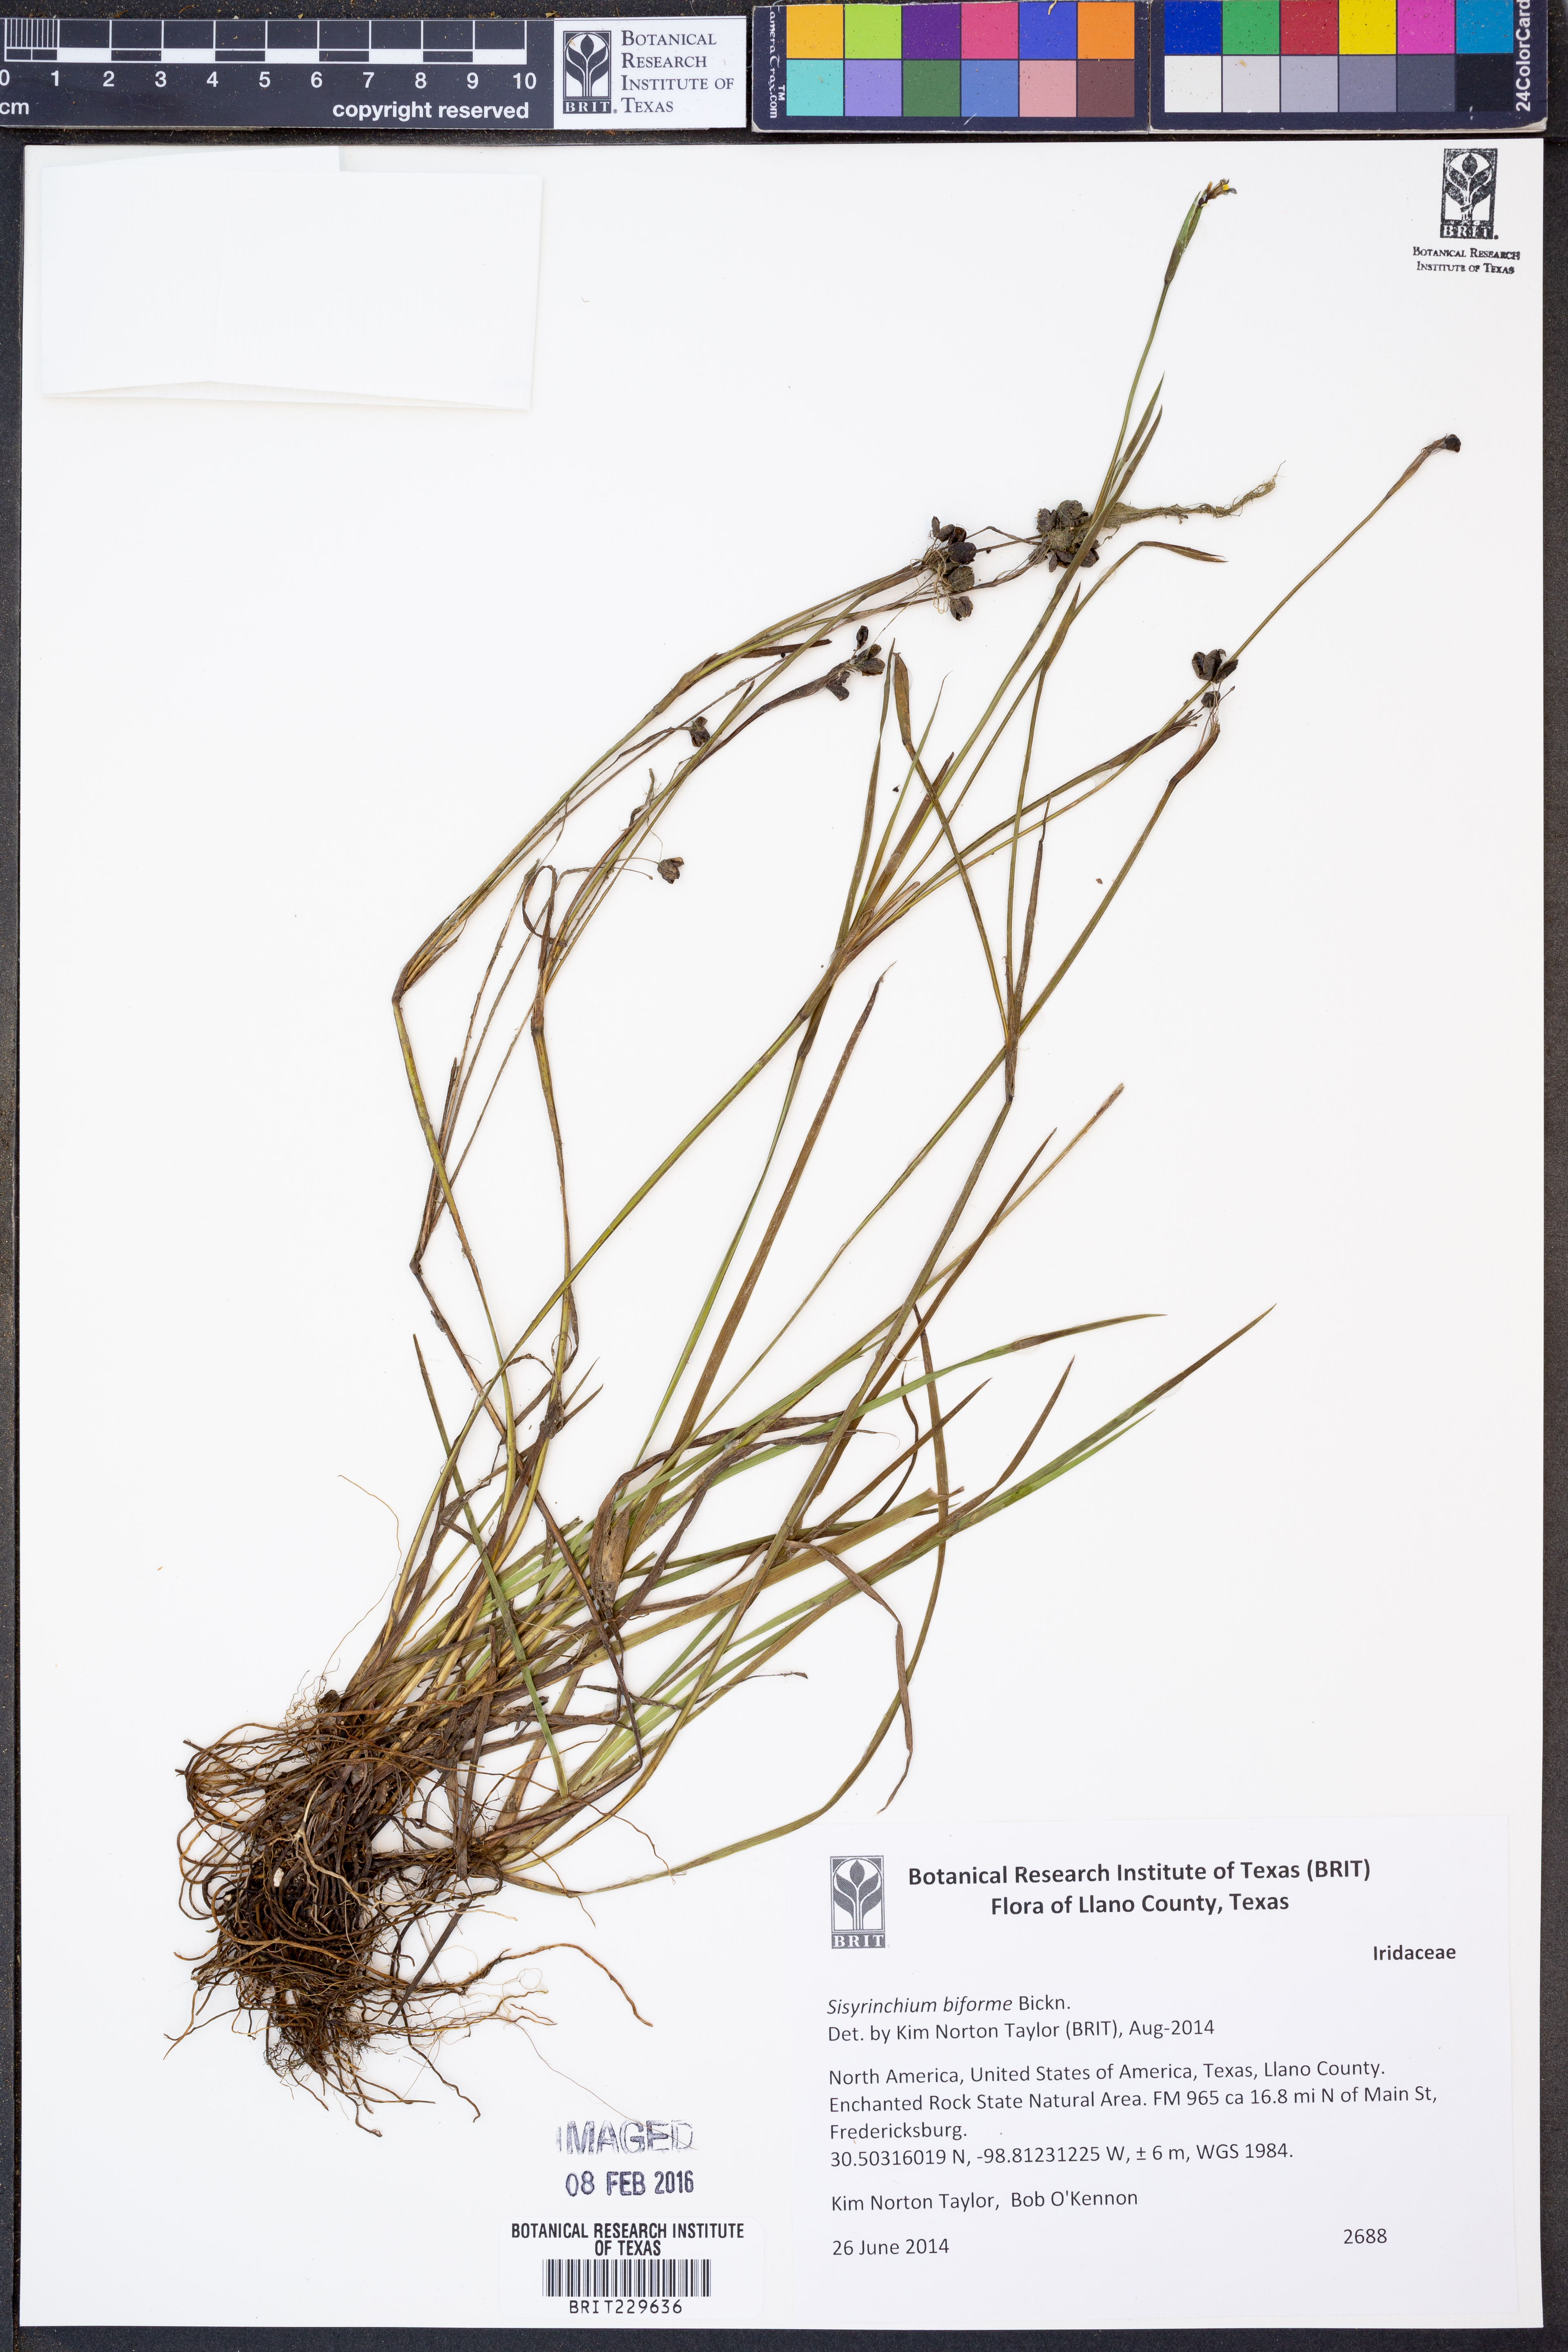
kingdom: Plantae
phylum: Tracheophyta
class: Liliopsida
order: Asparagales
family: Iridaceae
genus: Sisyrinchium
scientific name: Sisyrinchium biforme
